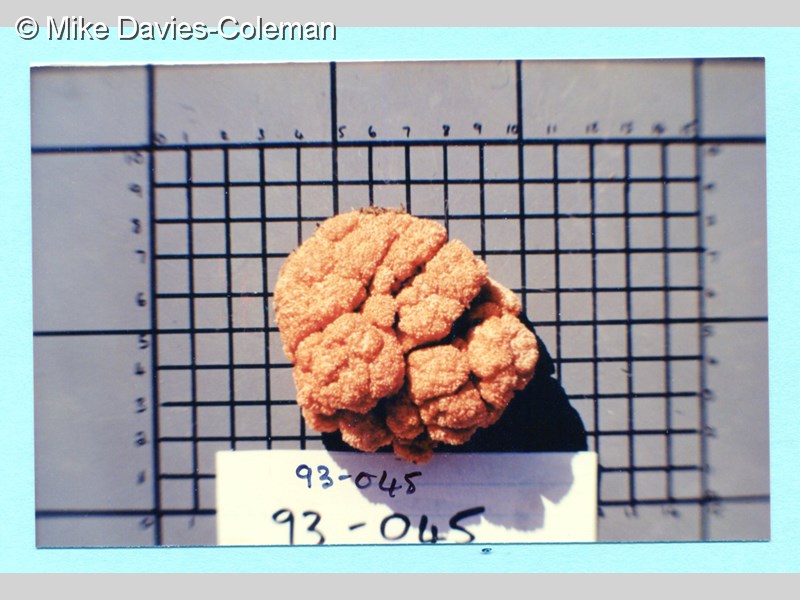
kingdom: Animalia
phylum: Cnidaria
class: Anthozoa
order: Malacalcyonacea
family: Capnellidae
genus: Eunephthya
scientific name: Eunephthya thyrsoidea
